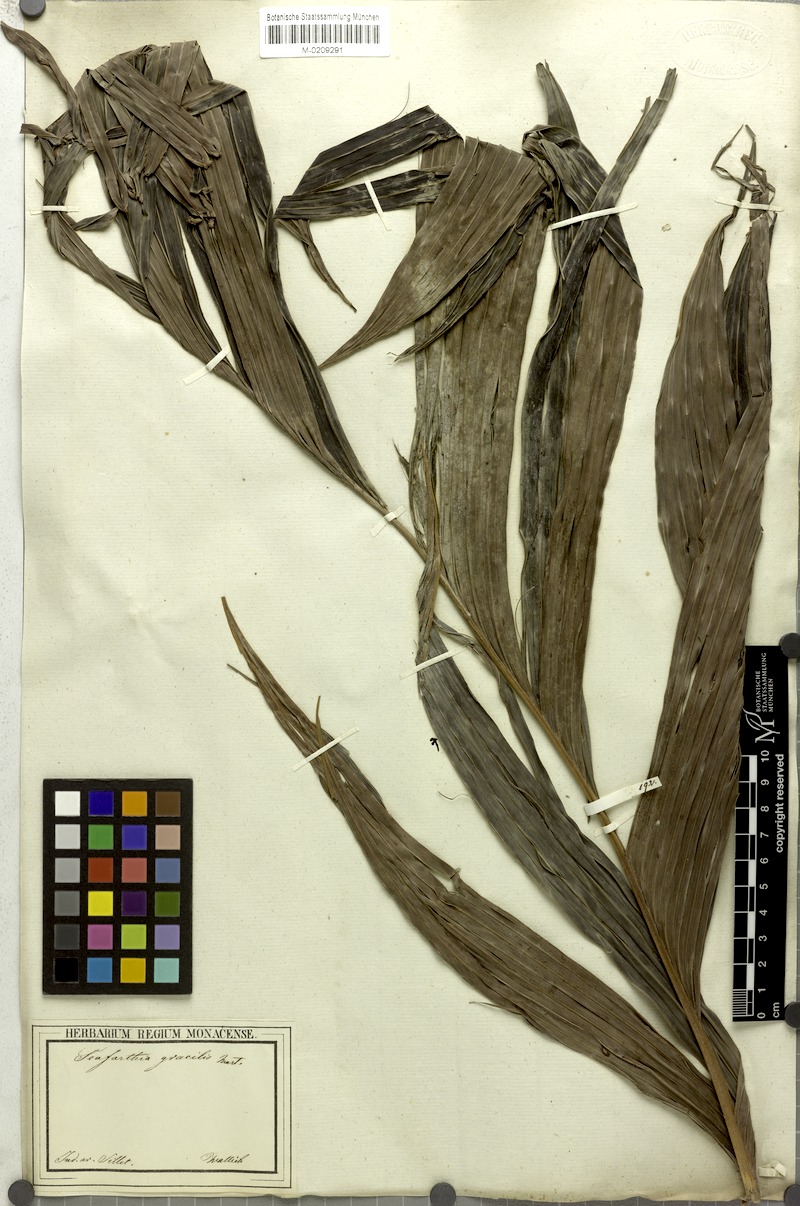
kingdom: Plantae
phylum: Tracheophyta
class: Liliopsida
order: Arecales
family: Arecaceae
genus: Pinanga
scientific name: Pinanga gracilis
